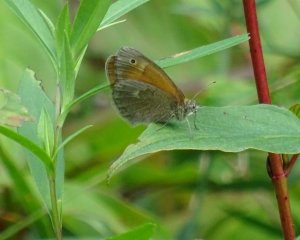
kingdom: Animalia
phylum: Arthropoda
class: Insecta
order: Lepidoptera
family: Nymphalidae
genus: Coenonympha
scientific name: Coenonympha tullia
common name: Large Heath
